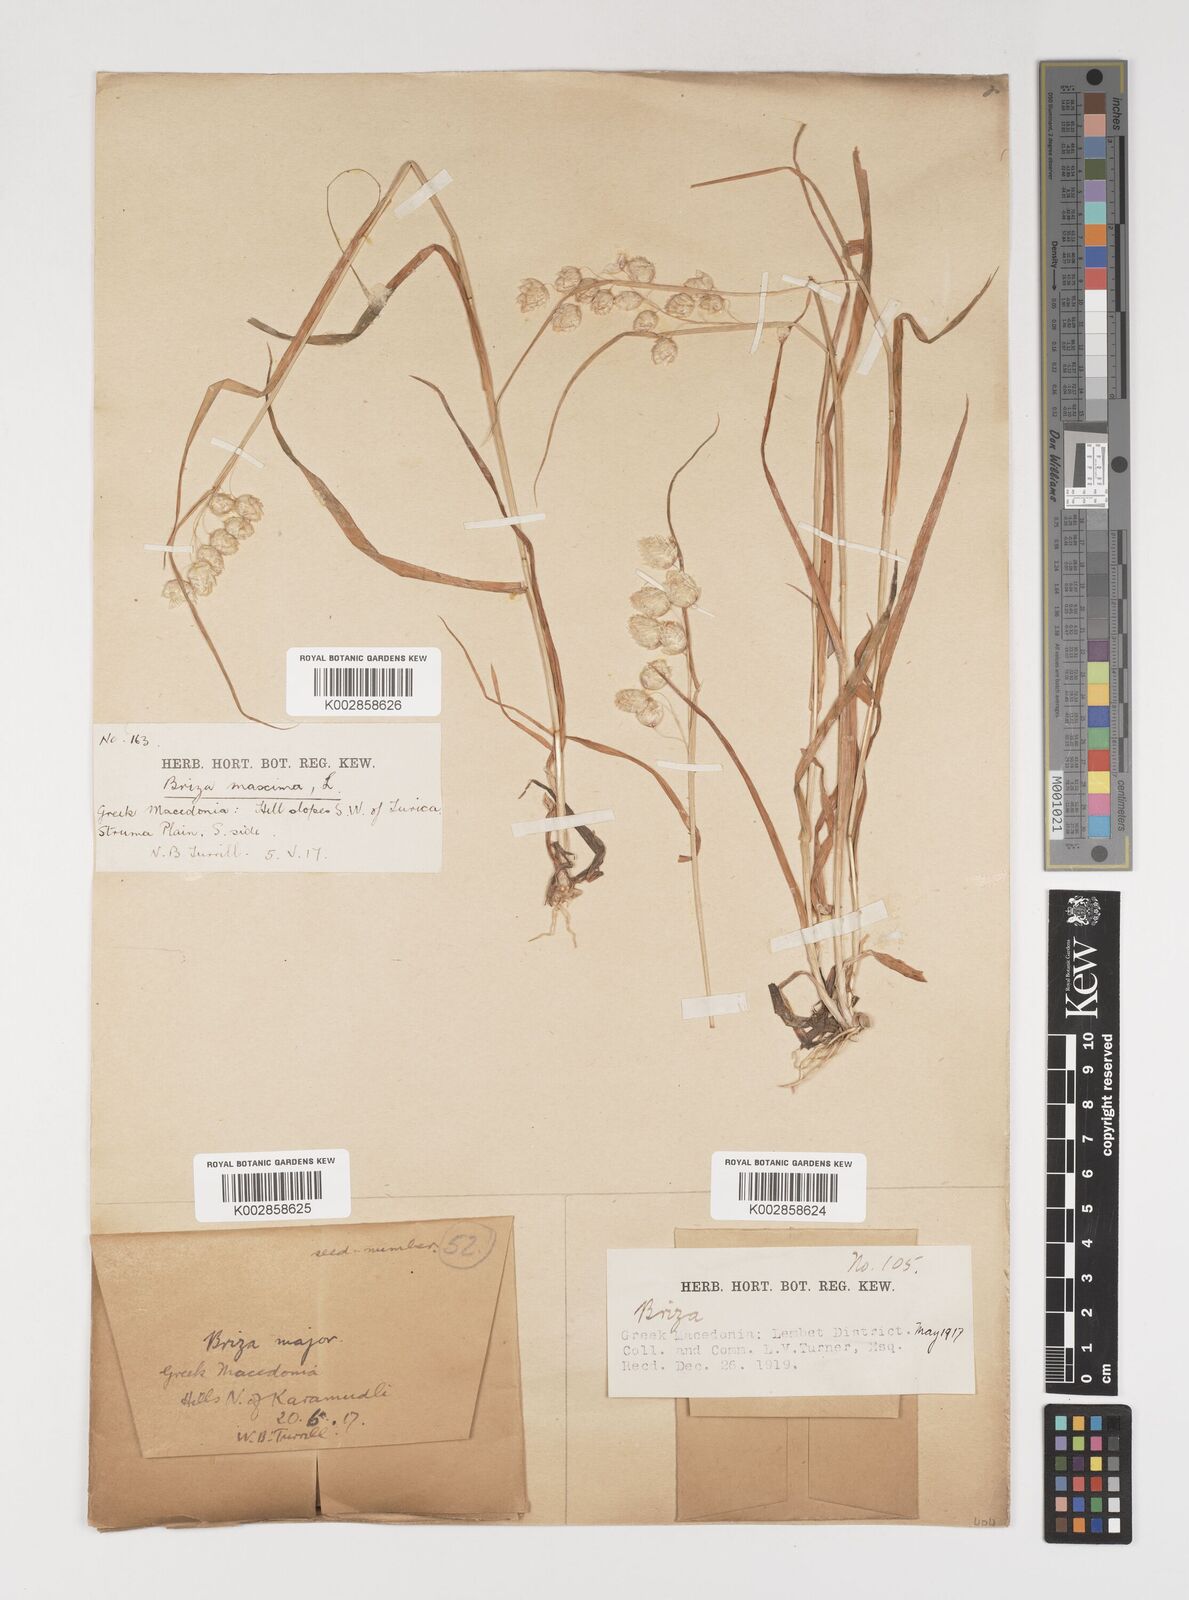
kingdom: Plantae
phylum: Tracheophyta
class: Liliopsida
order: Poales
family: Poaceae
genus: Briza
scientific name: Briza maxima
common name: Big quakinggrass
